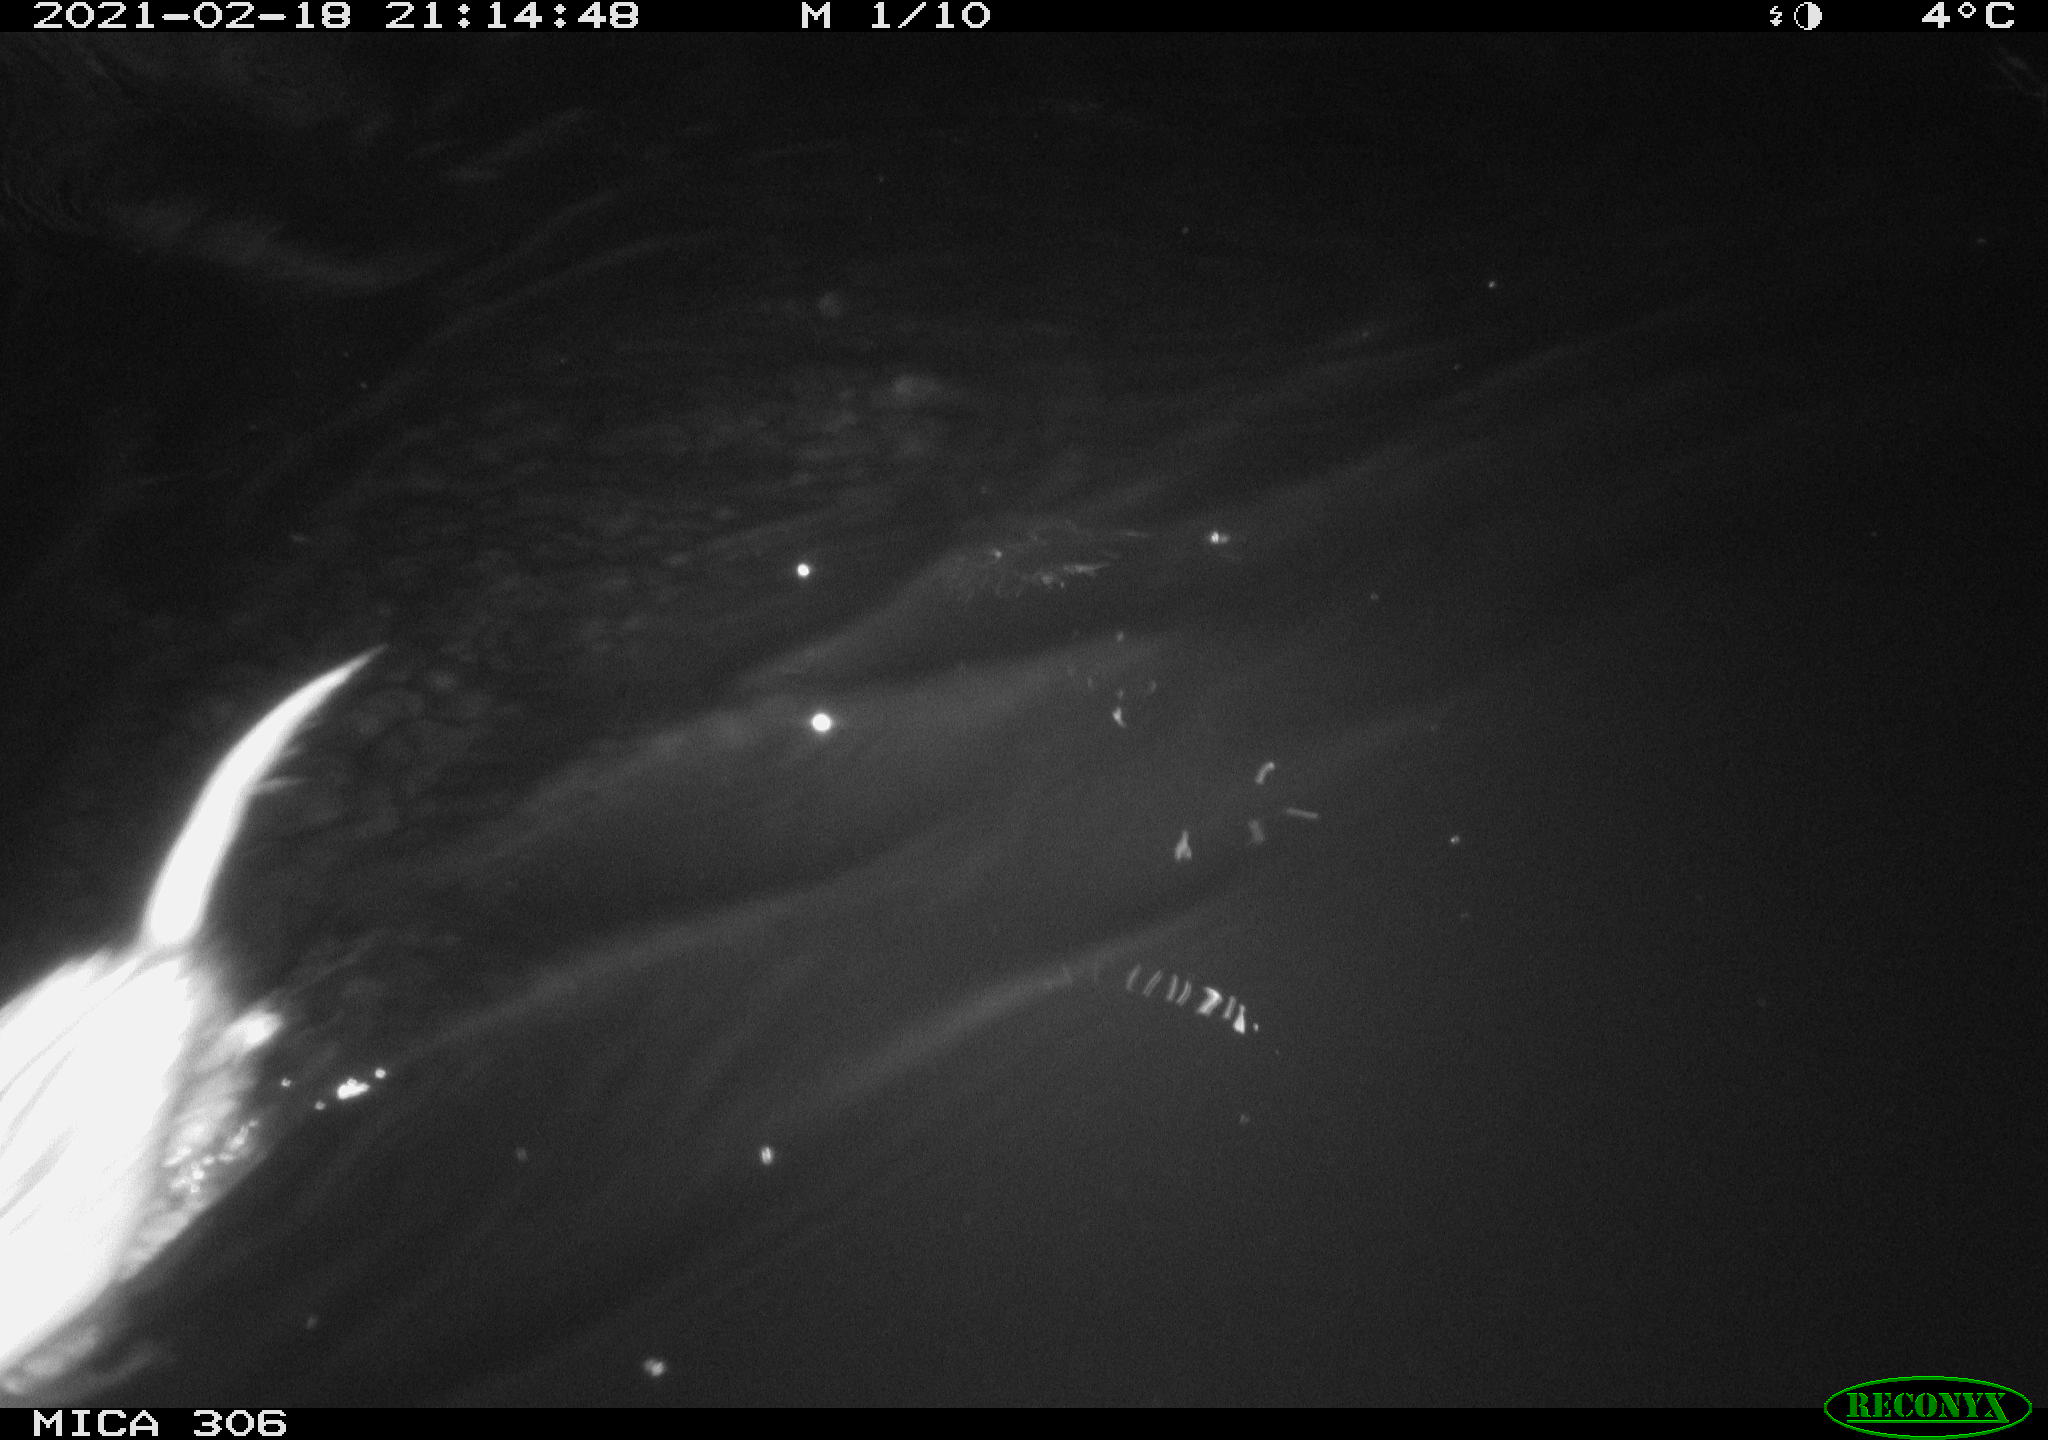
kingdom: Animalia
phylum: Chordata
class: Mammalia
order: Rodentia
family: Cricetidae
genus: Ondatra
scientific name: Ondatra zibethicus
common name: Muskrat
